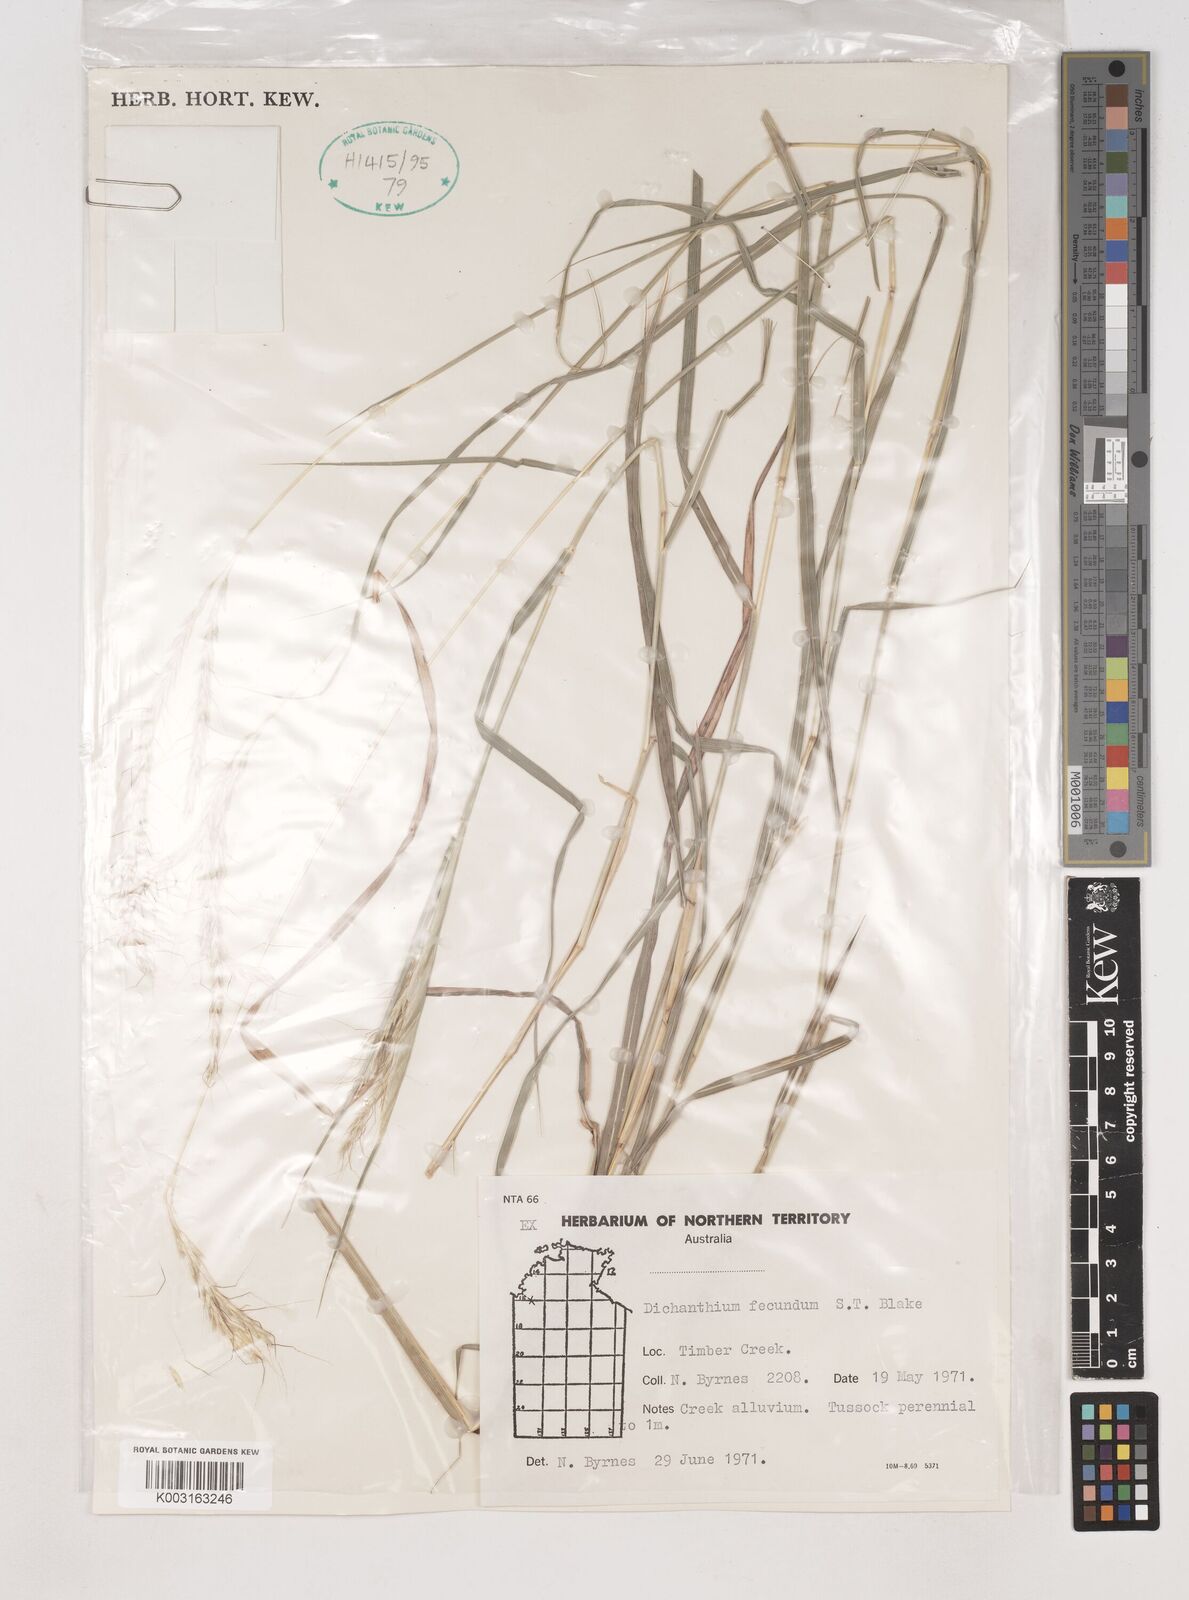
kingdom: Plantae
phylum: Tracheophyta
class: Liliopsida
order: Poales
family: Poaceae
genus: Dichanthium
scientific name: Dichanthium fecundum
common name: Bundle-bundle
